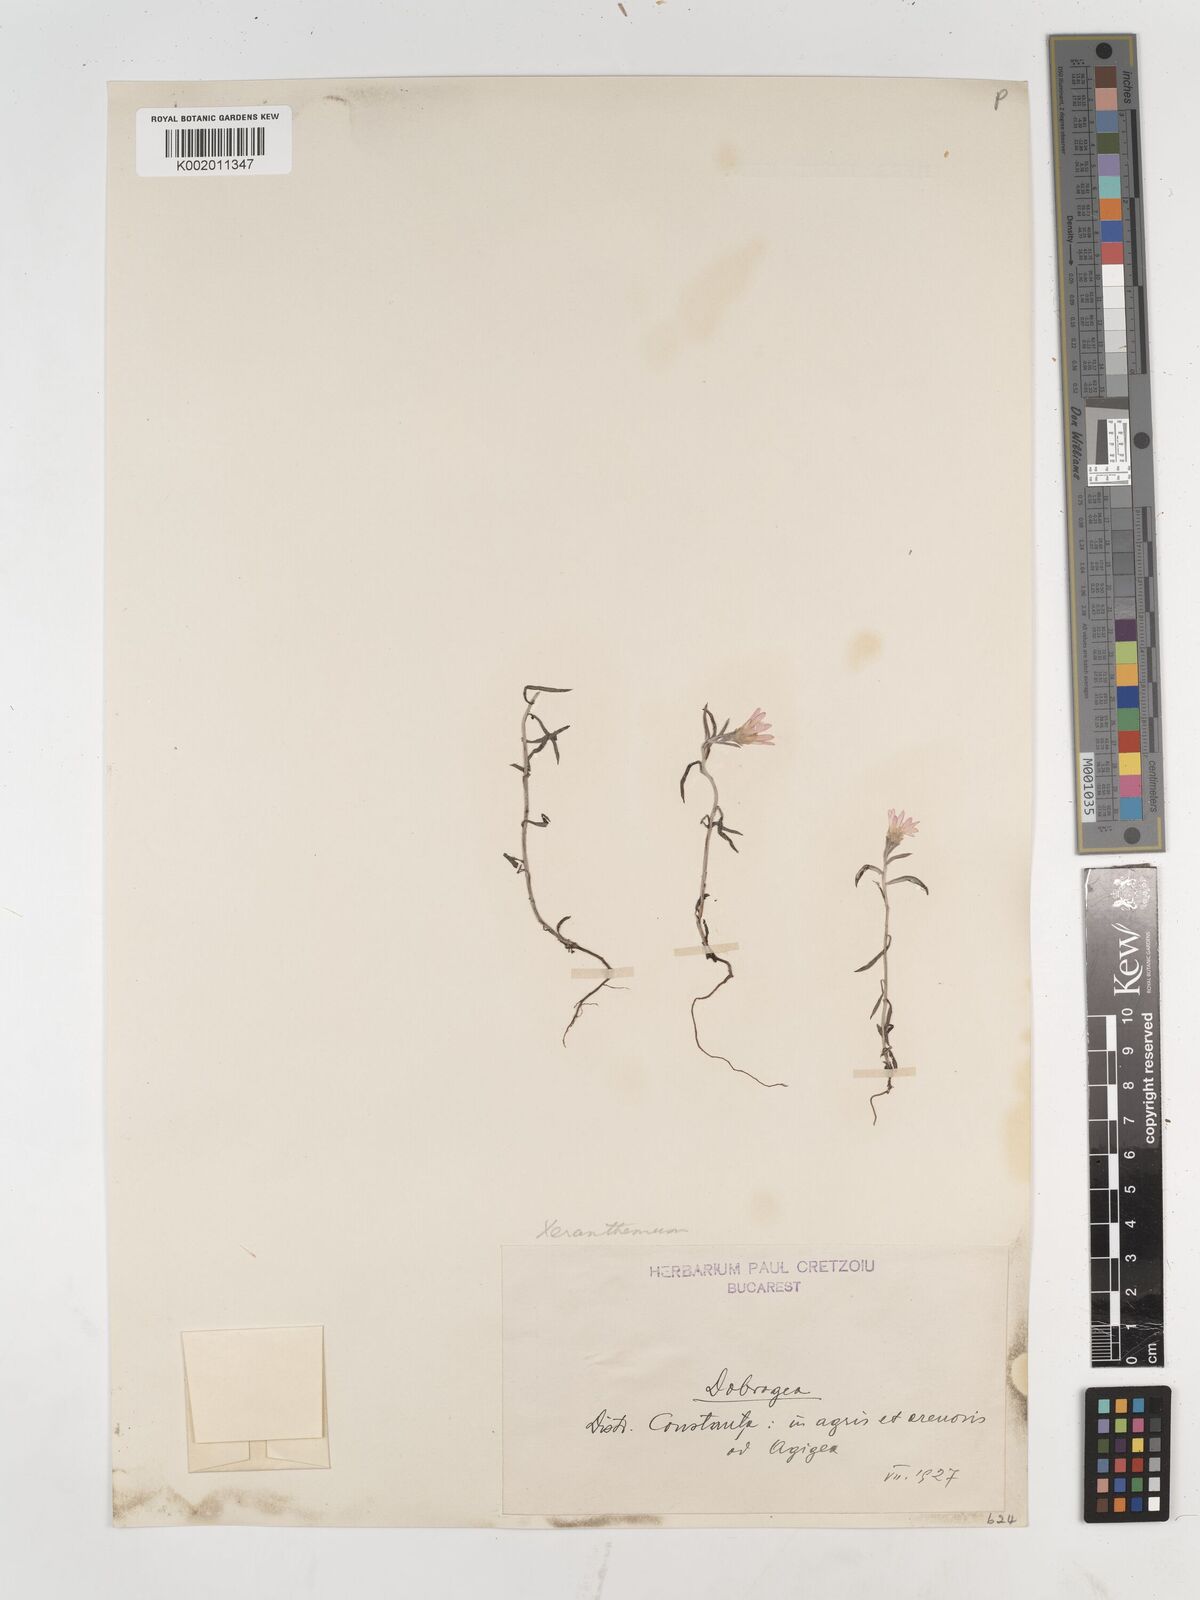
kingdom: Plantae
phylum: Tracheophyta
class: Magnoliopsida
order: Asterales
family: Asteraceae
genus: Xeranthemum
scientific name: Xeranthemum annuum
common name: Immortelle
